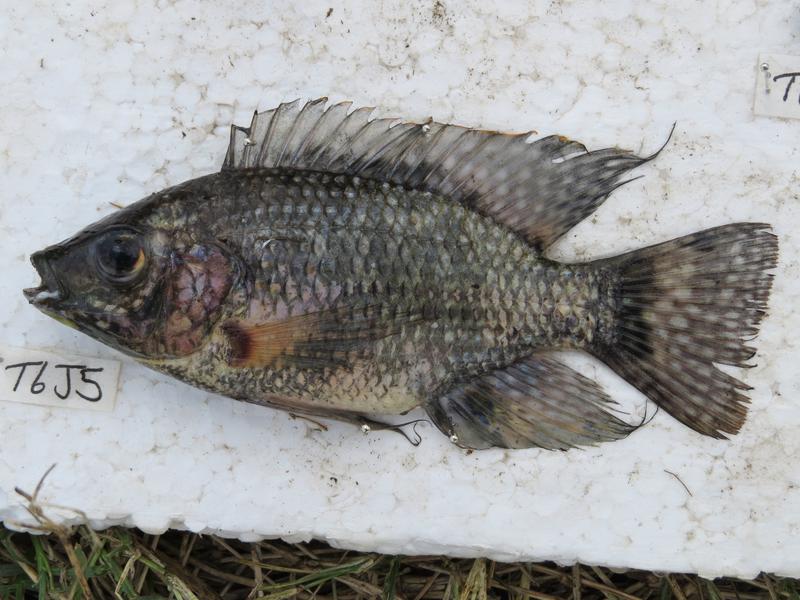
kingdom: Animalia
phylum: Chordata
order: Perciformes
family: Cichlidae
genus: Oreochromis
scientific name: Oreochromis leucostictus
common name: Blue spotted tilapia
